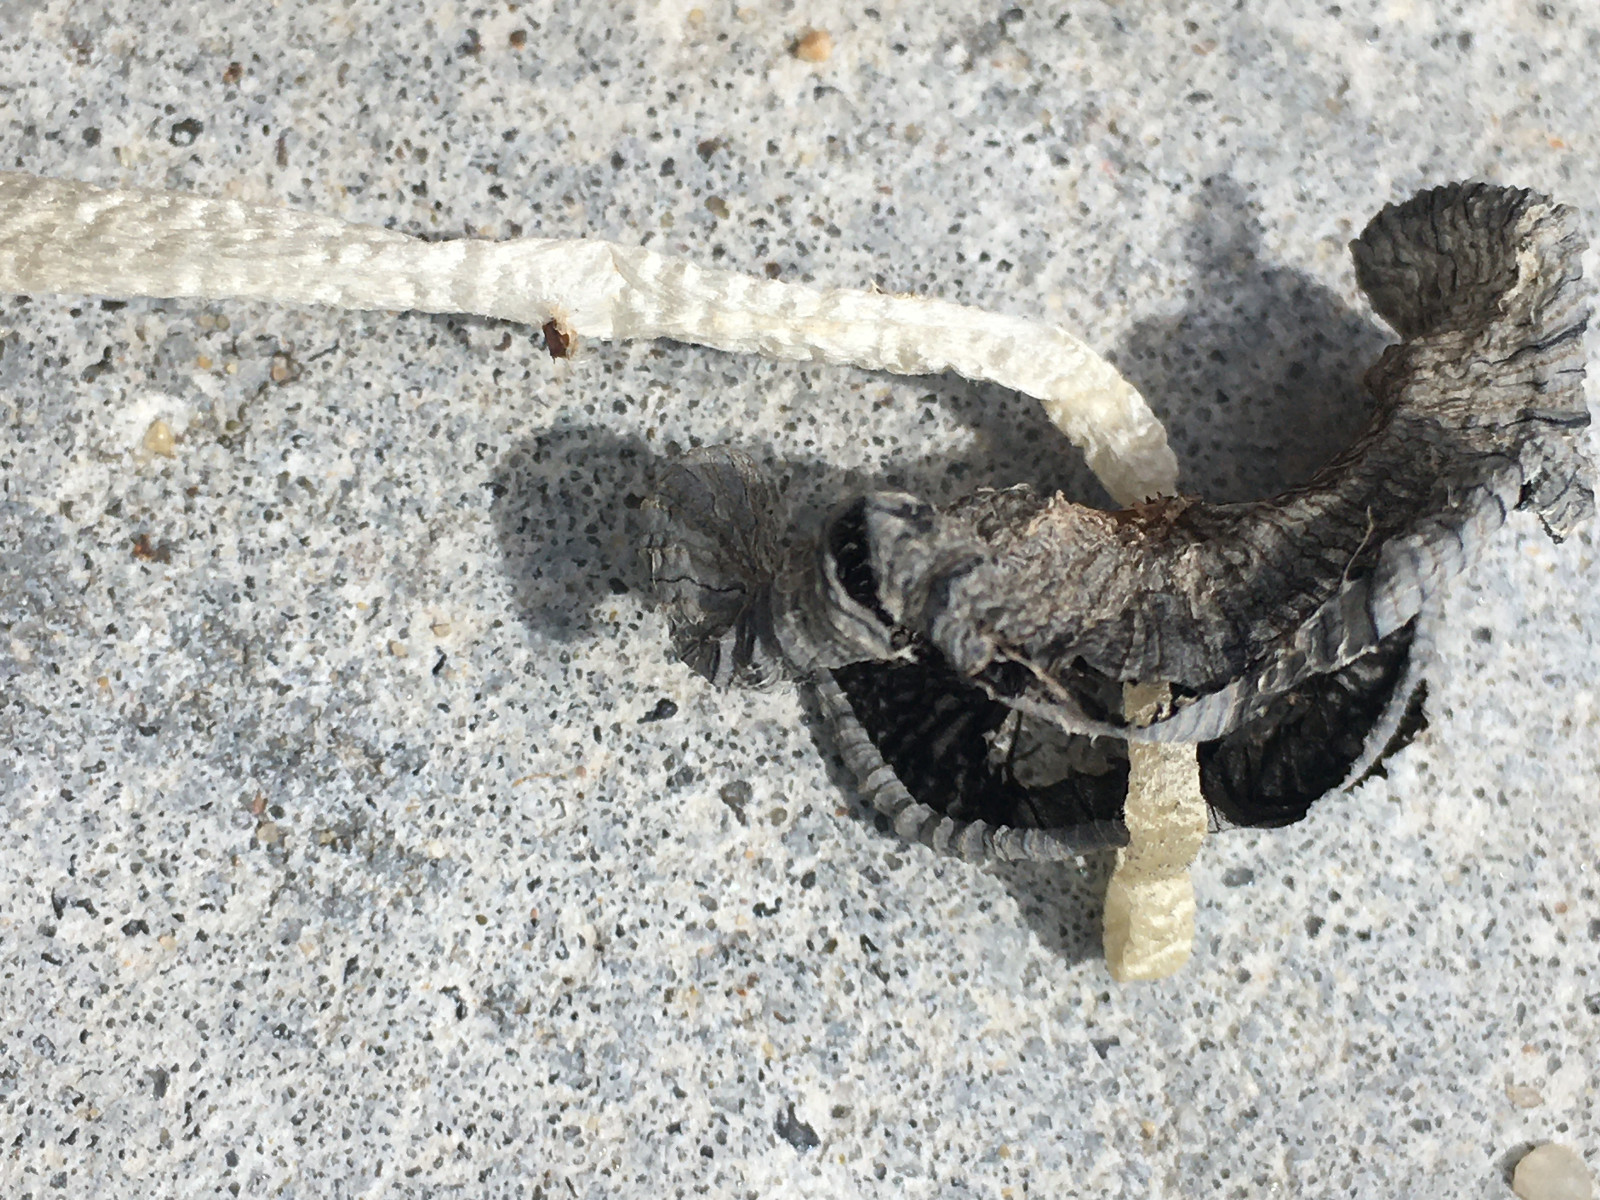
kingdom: Fungi
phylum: Basidiomycota
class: Agaricomycetes
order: Agaricales
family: Psathyrellaceae
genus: Coprinopsis
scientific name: Coprinopsis
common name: blækhat
